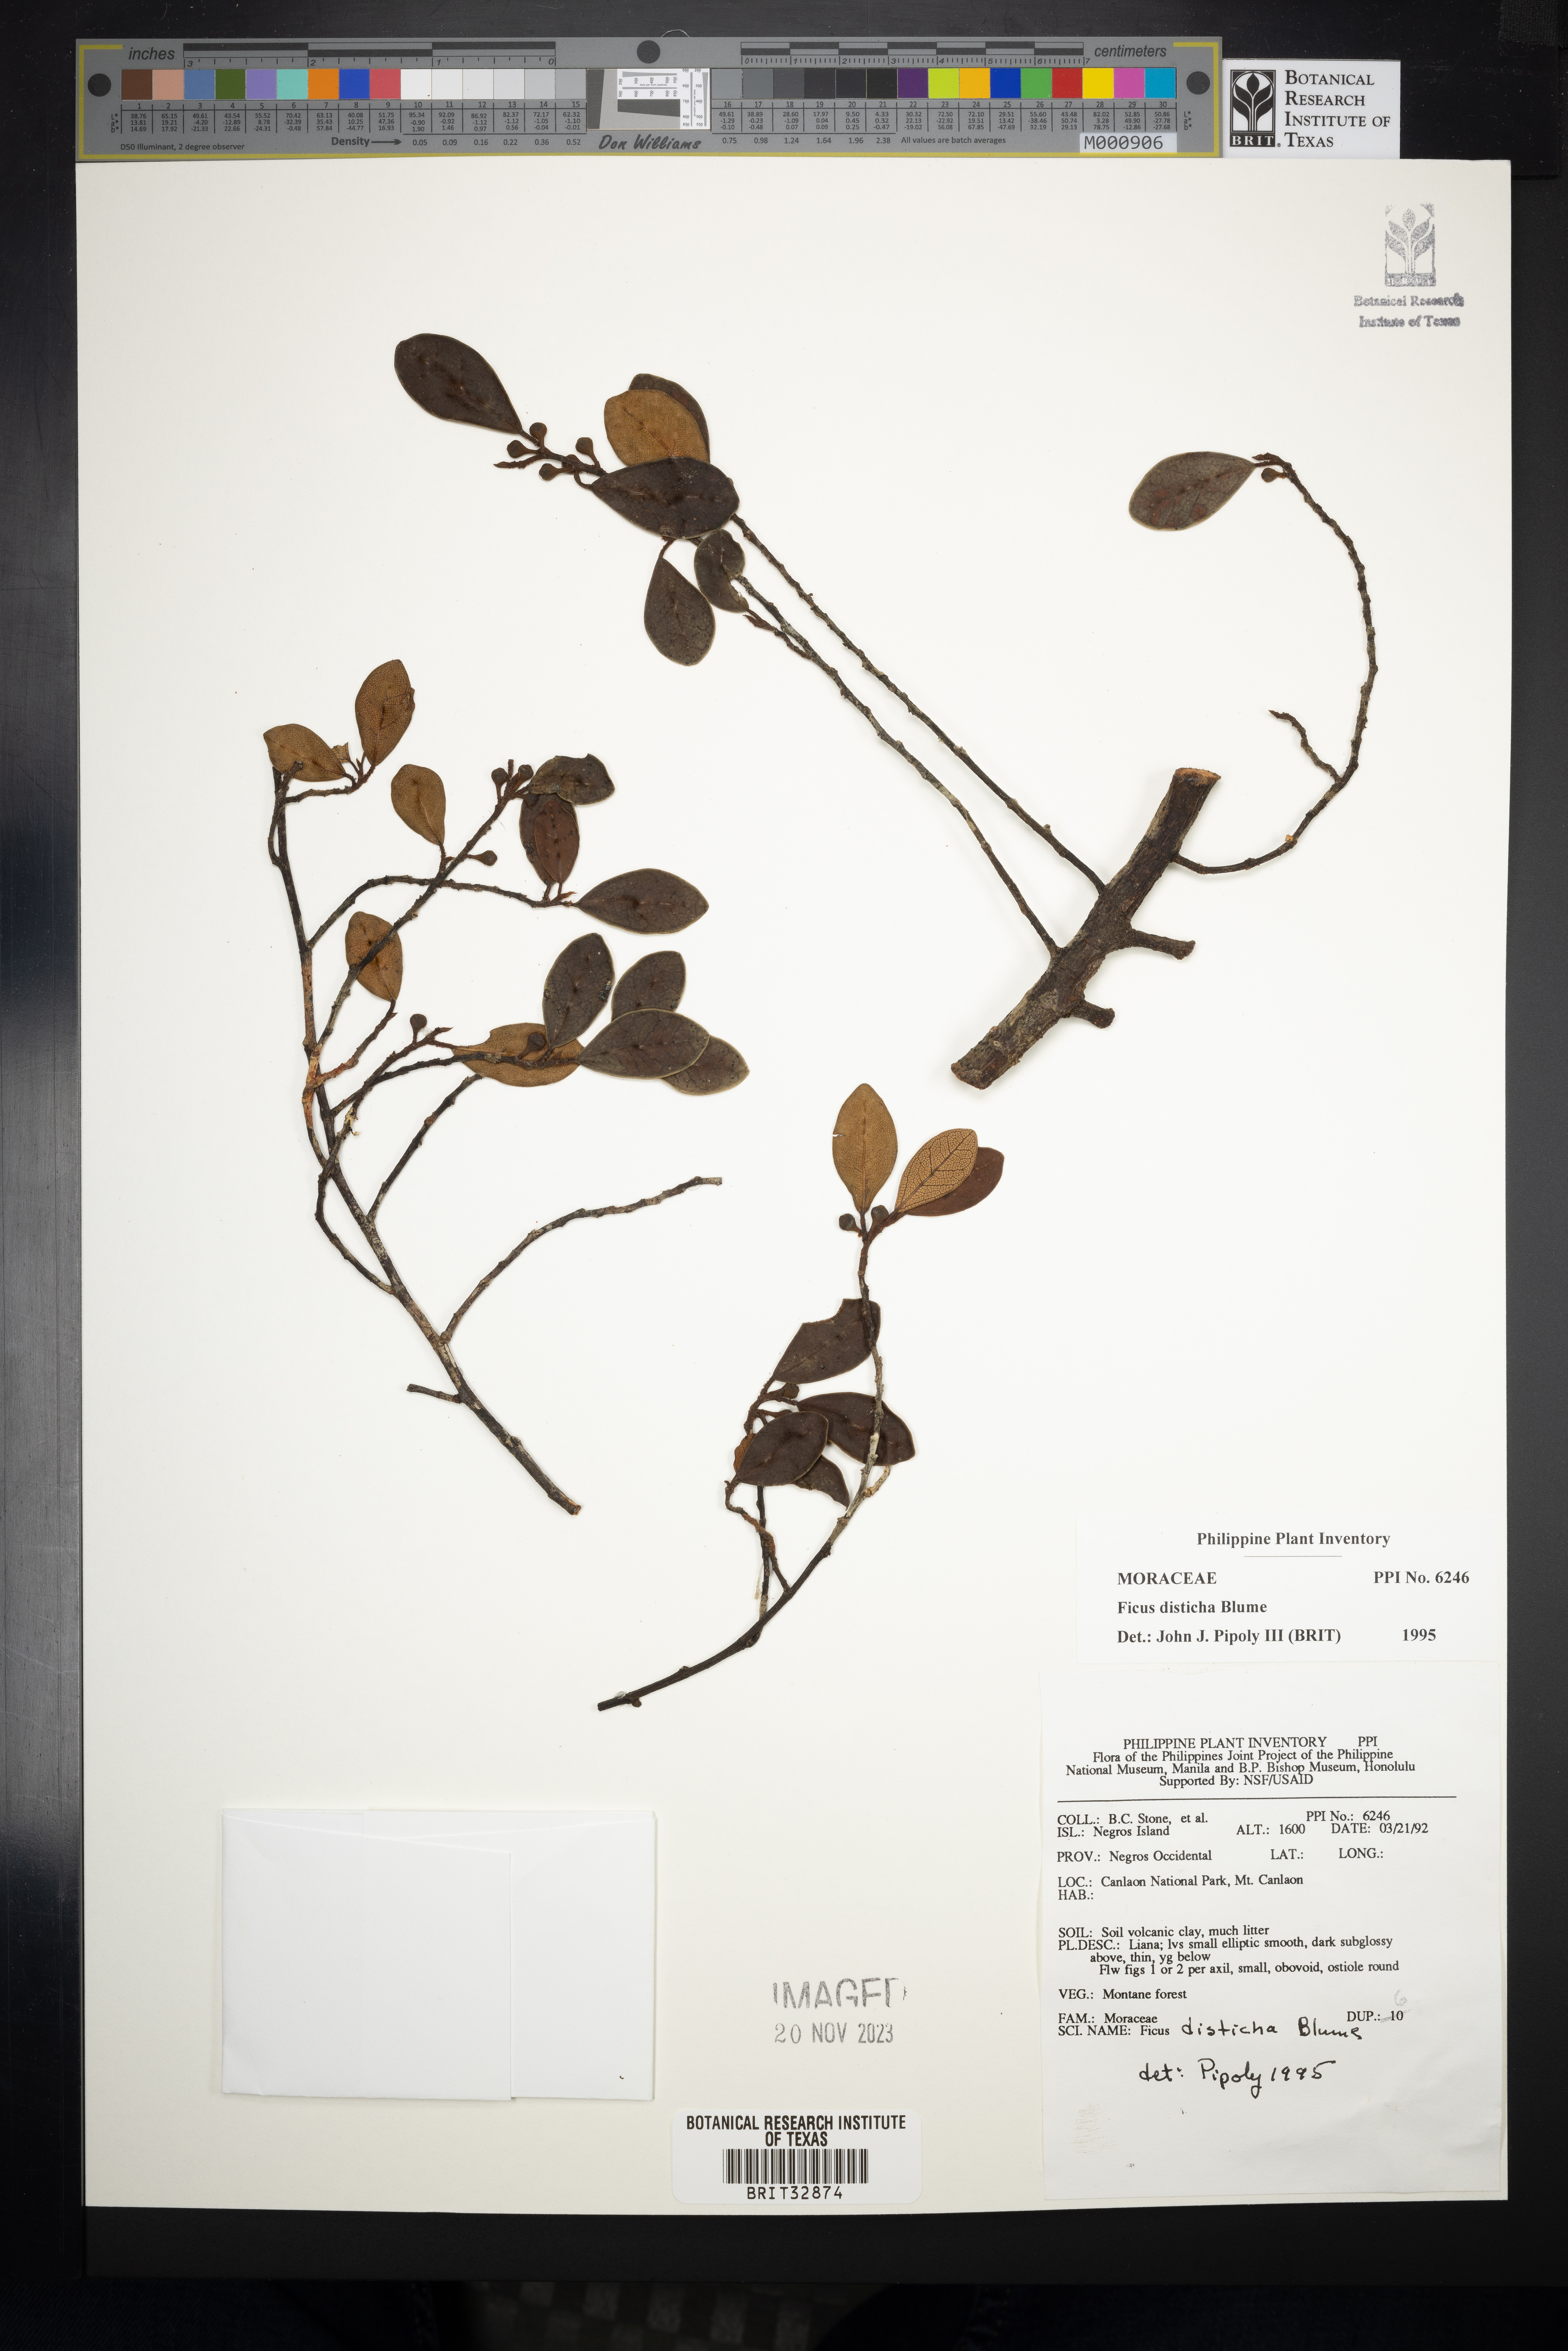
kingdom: Plantae
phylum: Tracheophyta
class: Magnoliopsida
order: Rosales
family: Moraceae
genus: Ficus
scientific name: Ficus disticha
